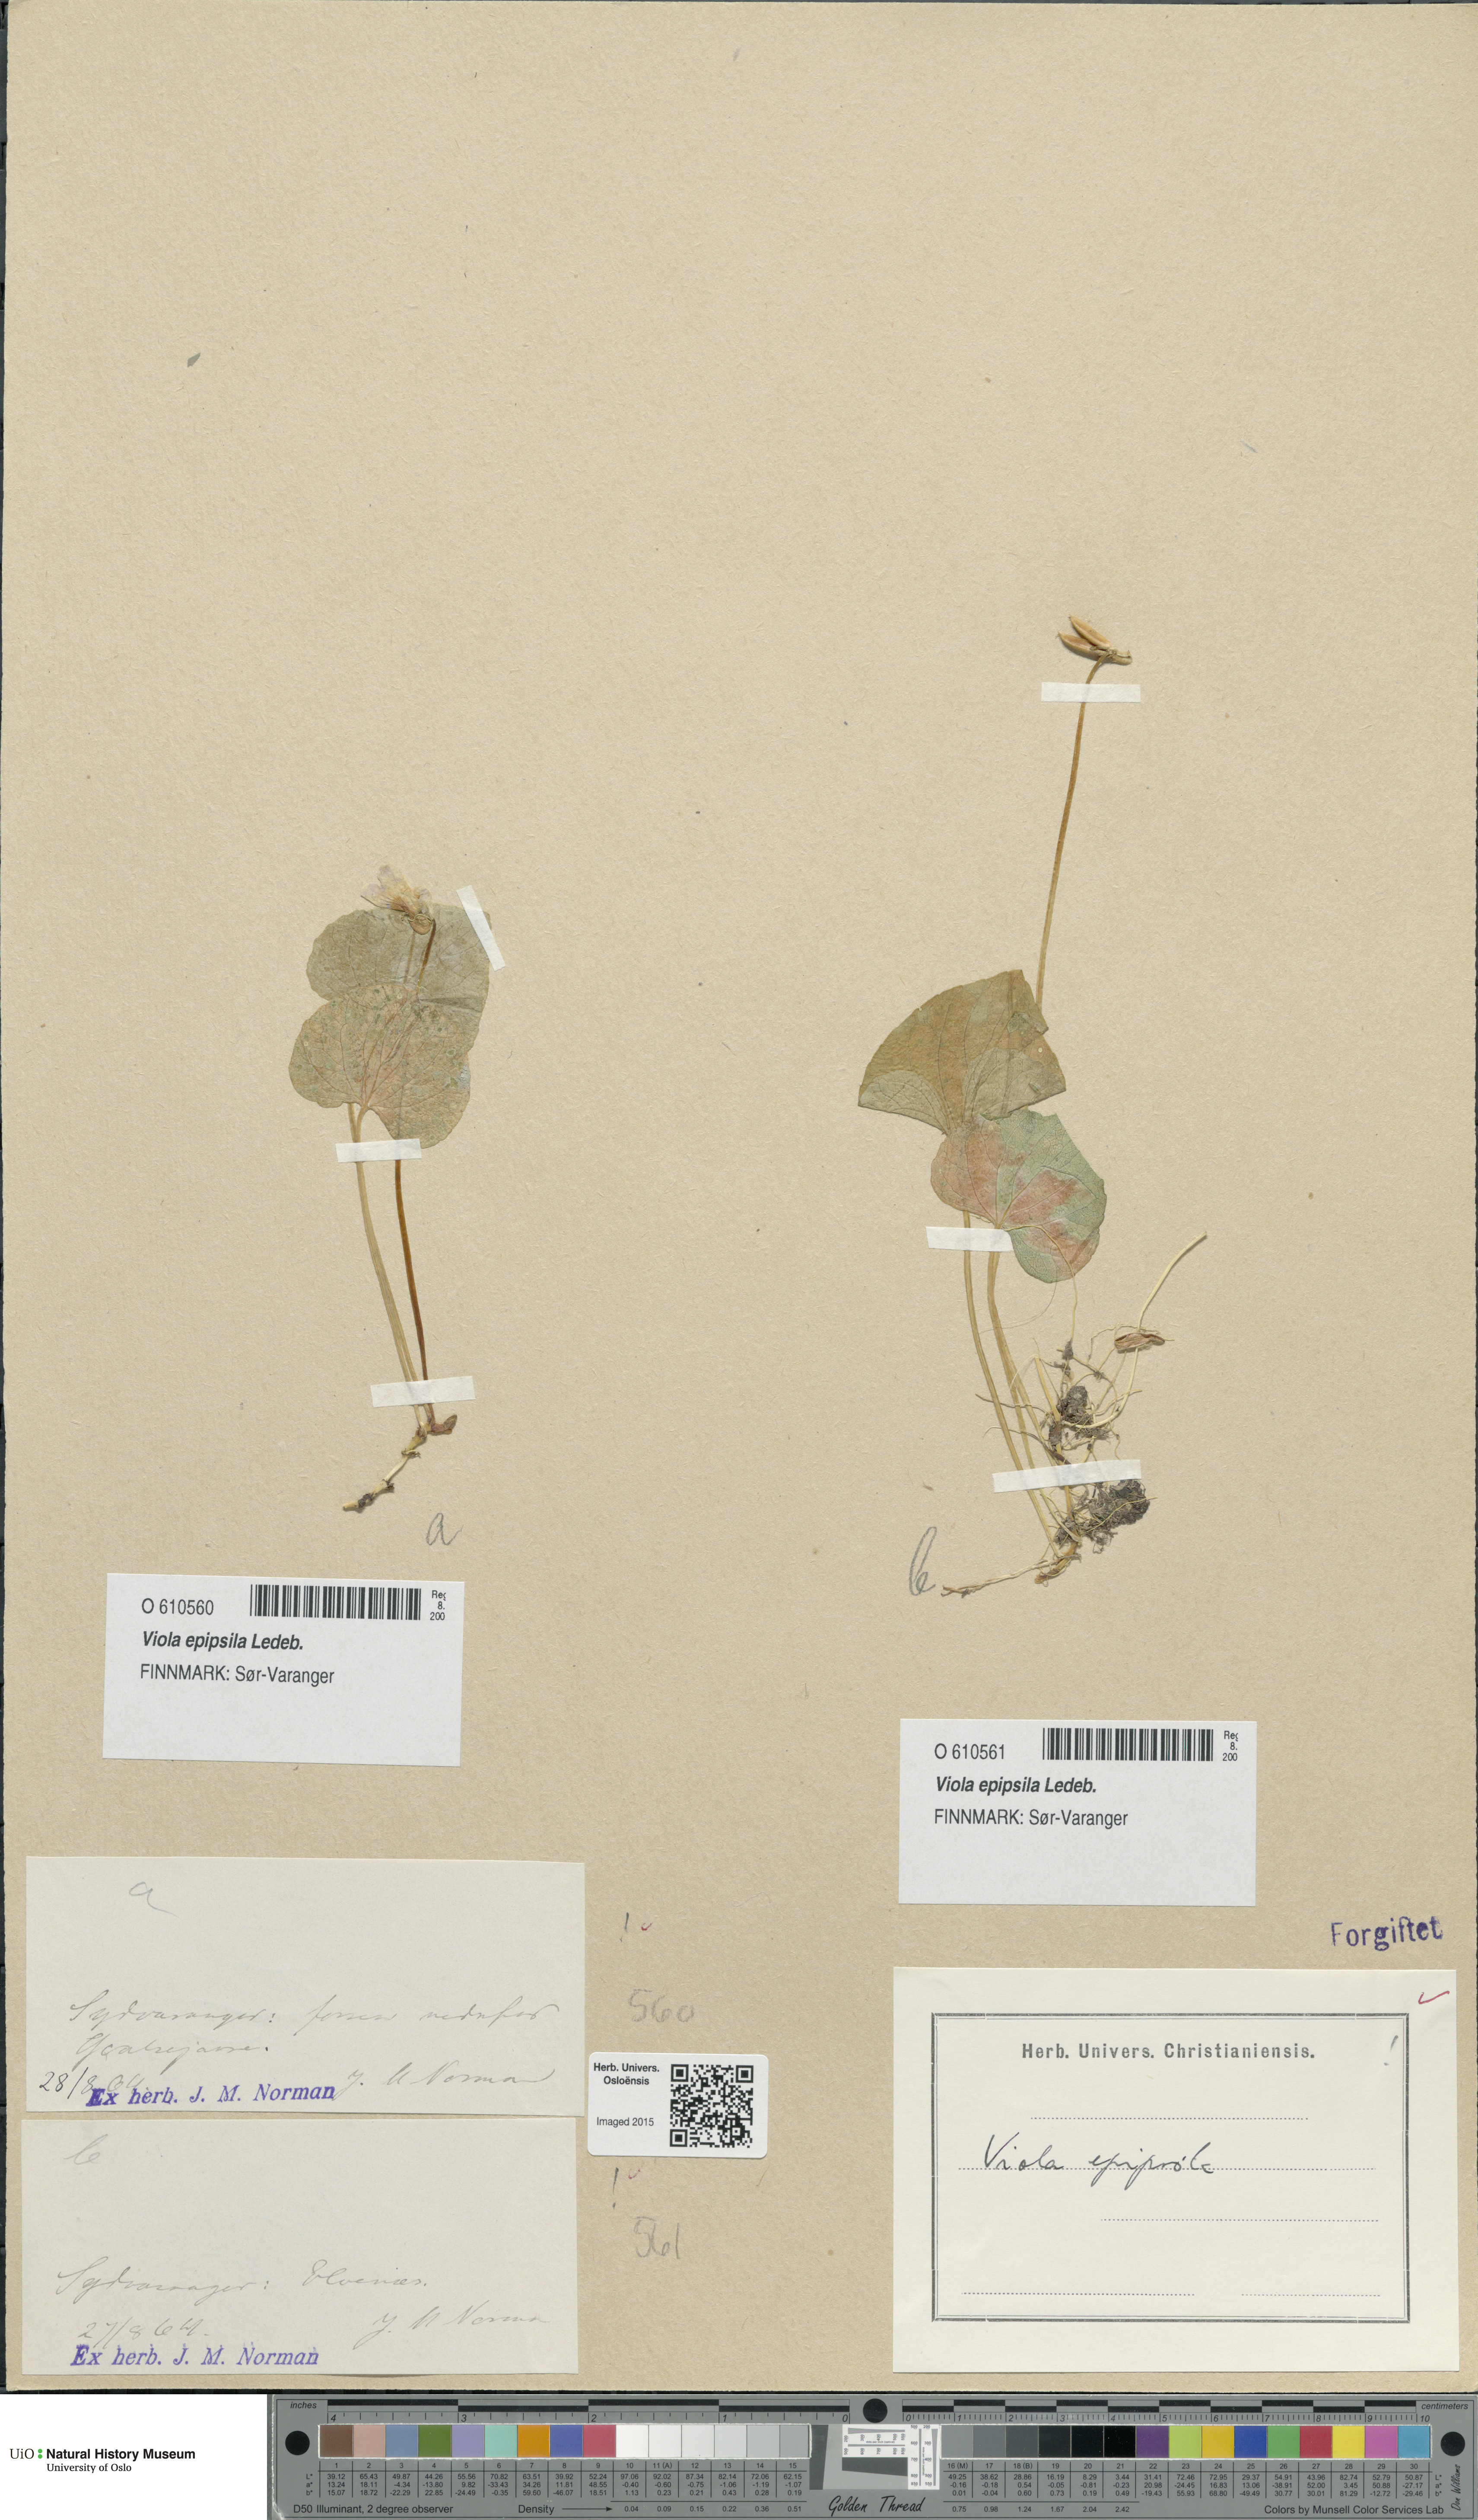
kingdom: Plantae
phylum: Tracheophyta
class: Magnoliopsida
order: Malpighiales
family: Violaceae
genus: Viola
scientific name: Viola epipsila
